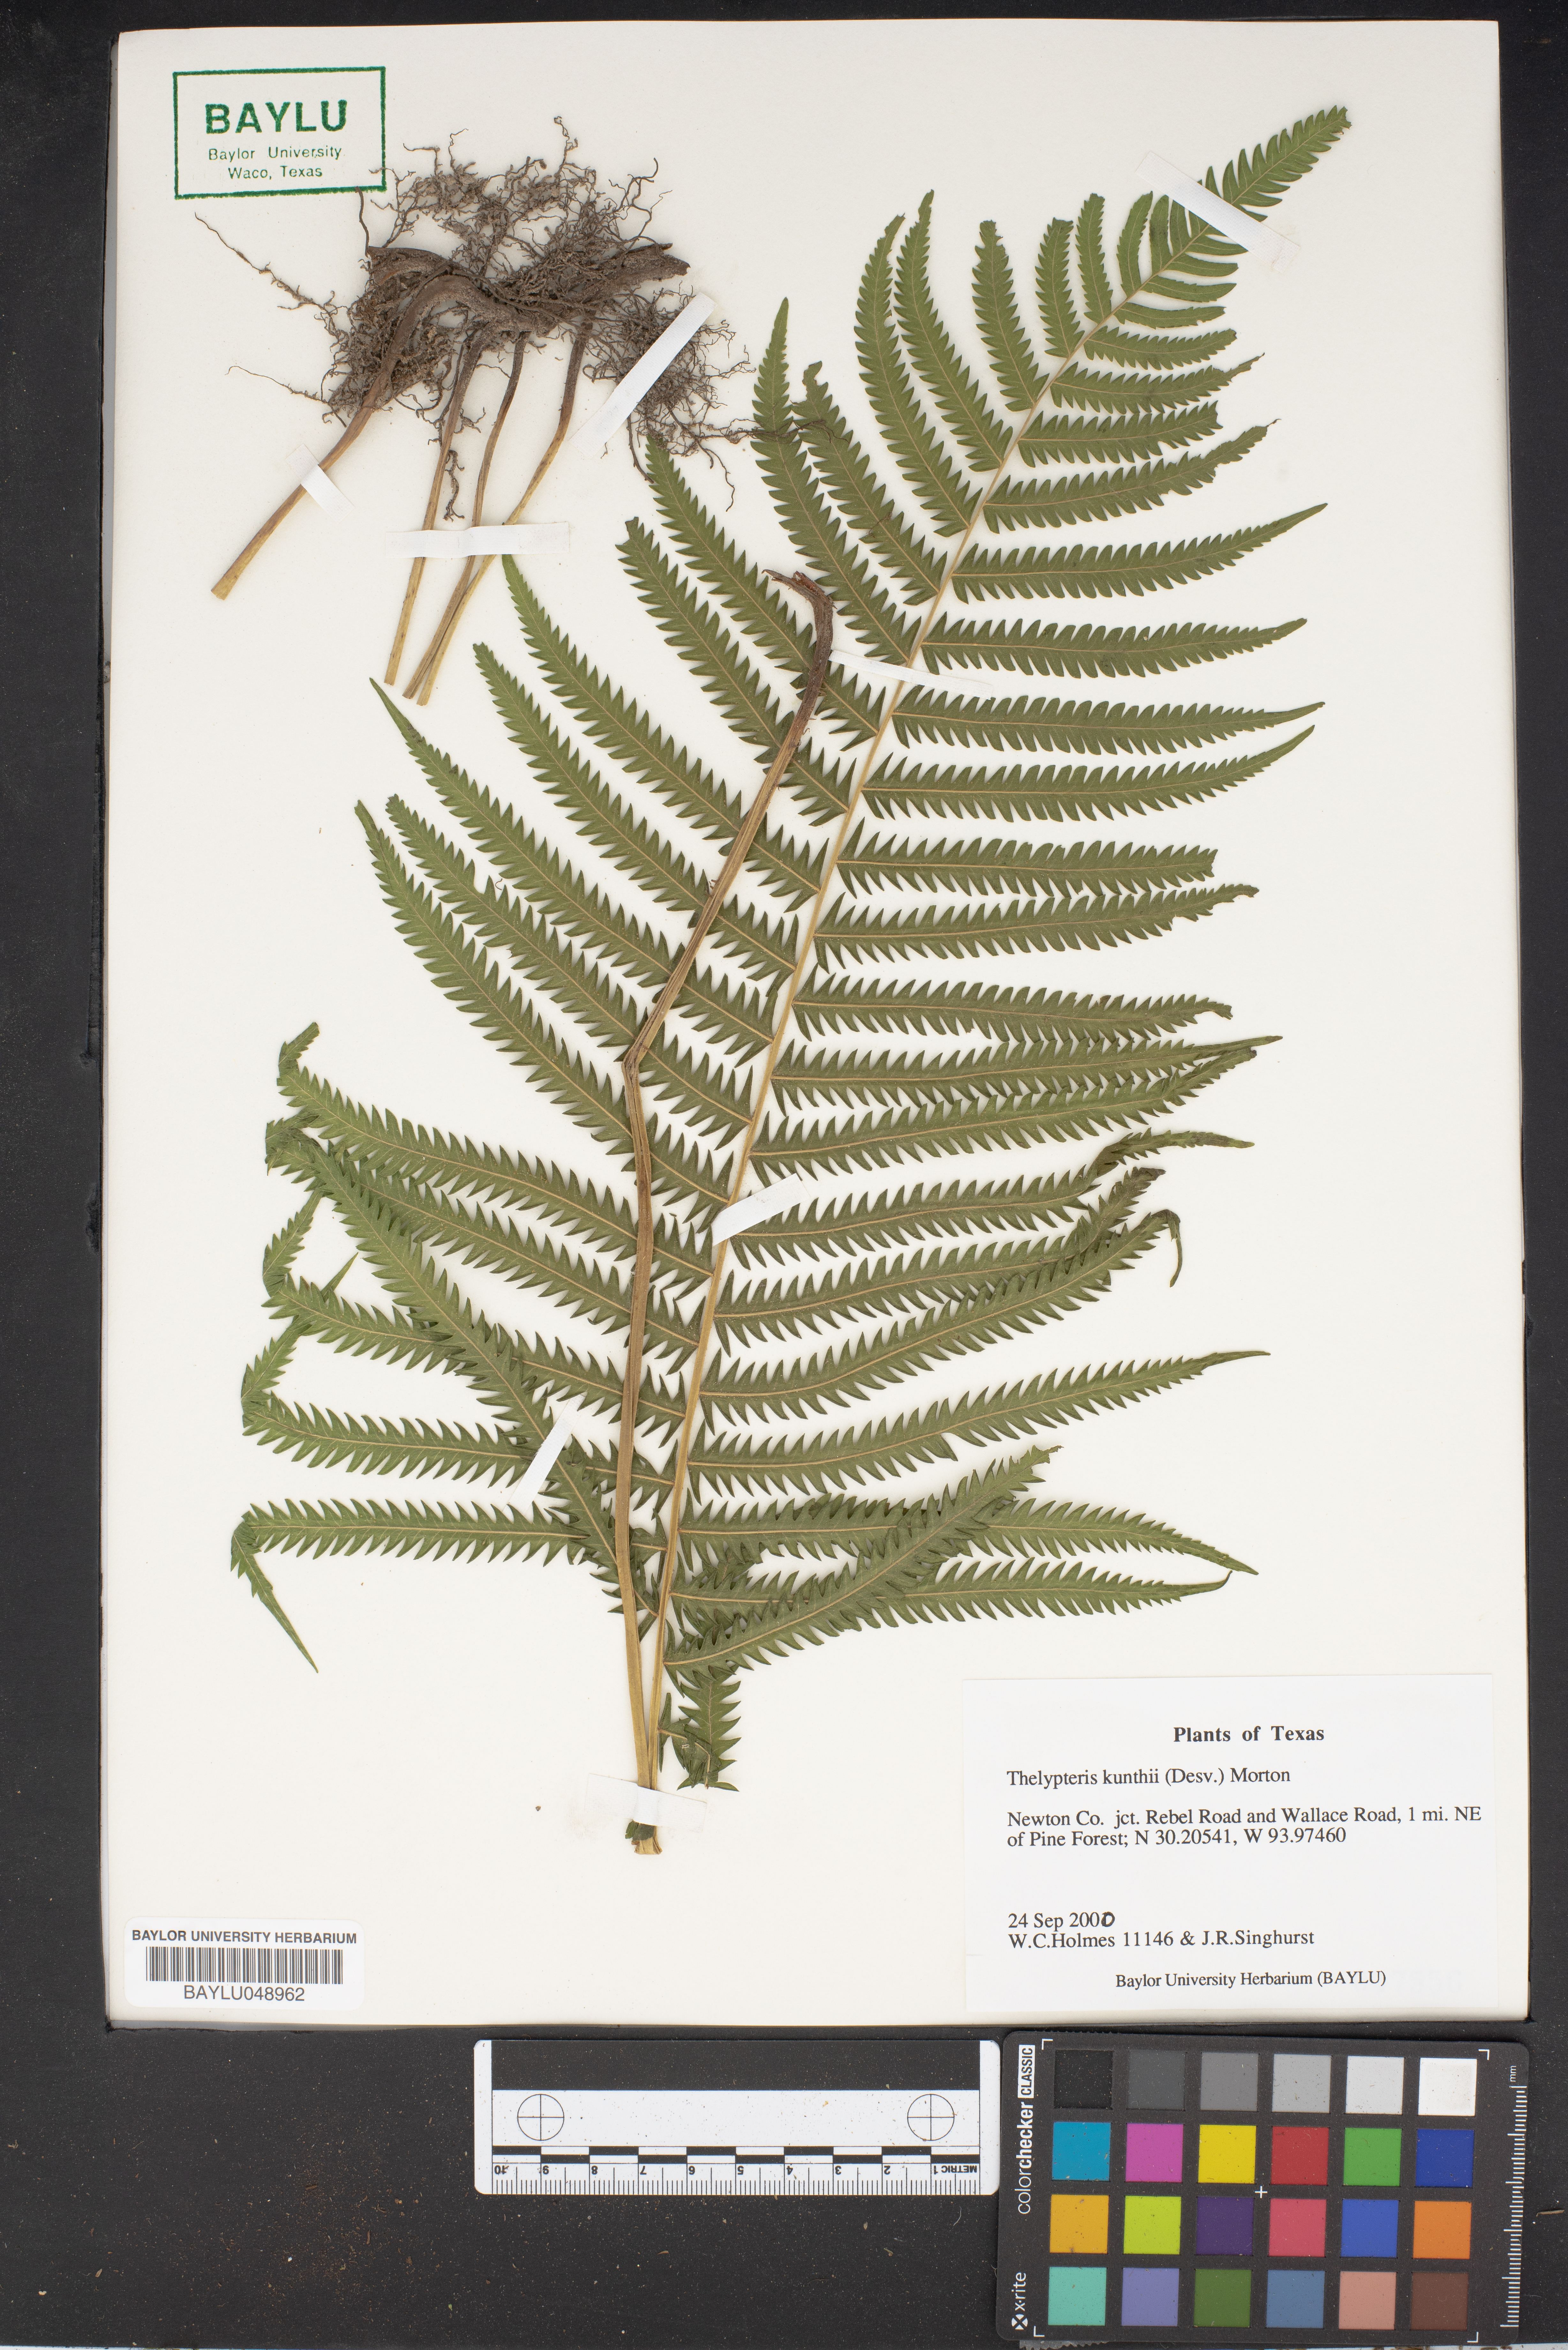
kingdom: Plantae
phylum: Tracheophyta
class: Polypodiopsida
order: Polypodiales
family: Thelypteridaceae
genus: Pelazoneuron
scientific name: Pelazoneuron kunthii
